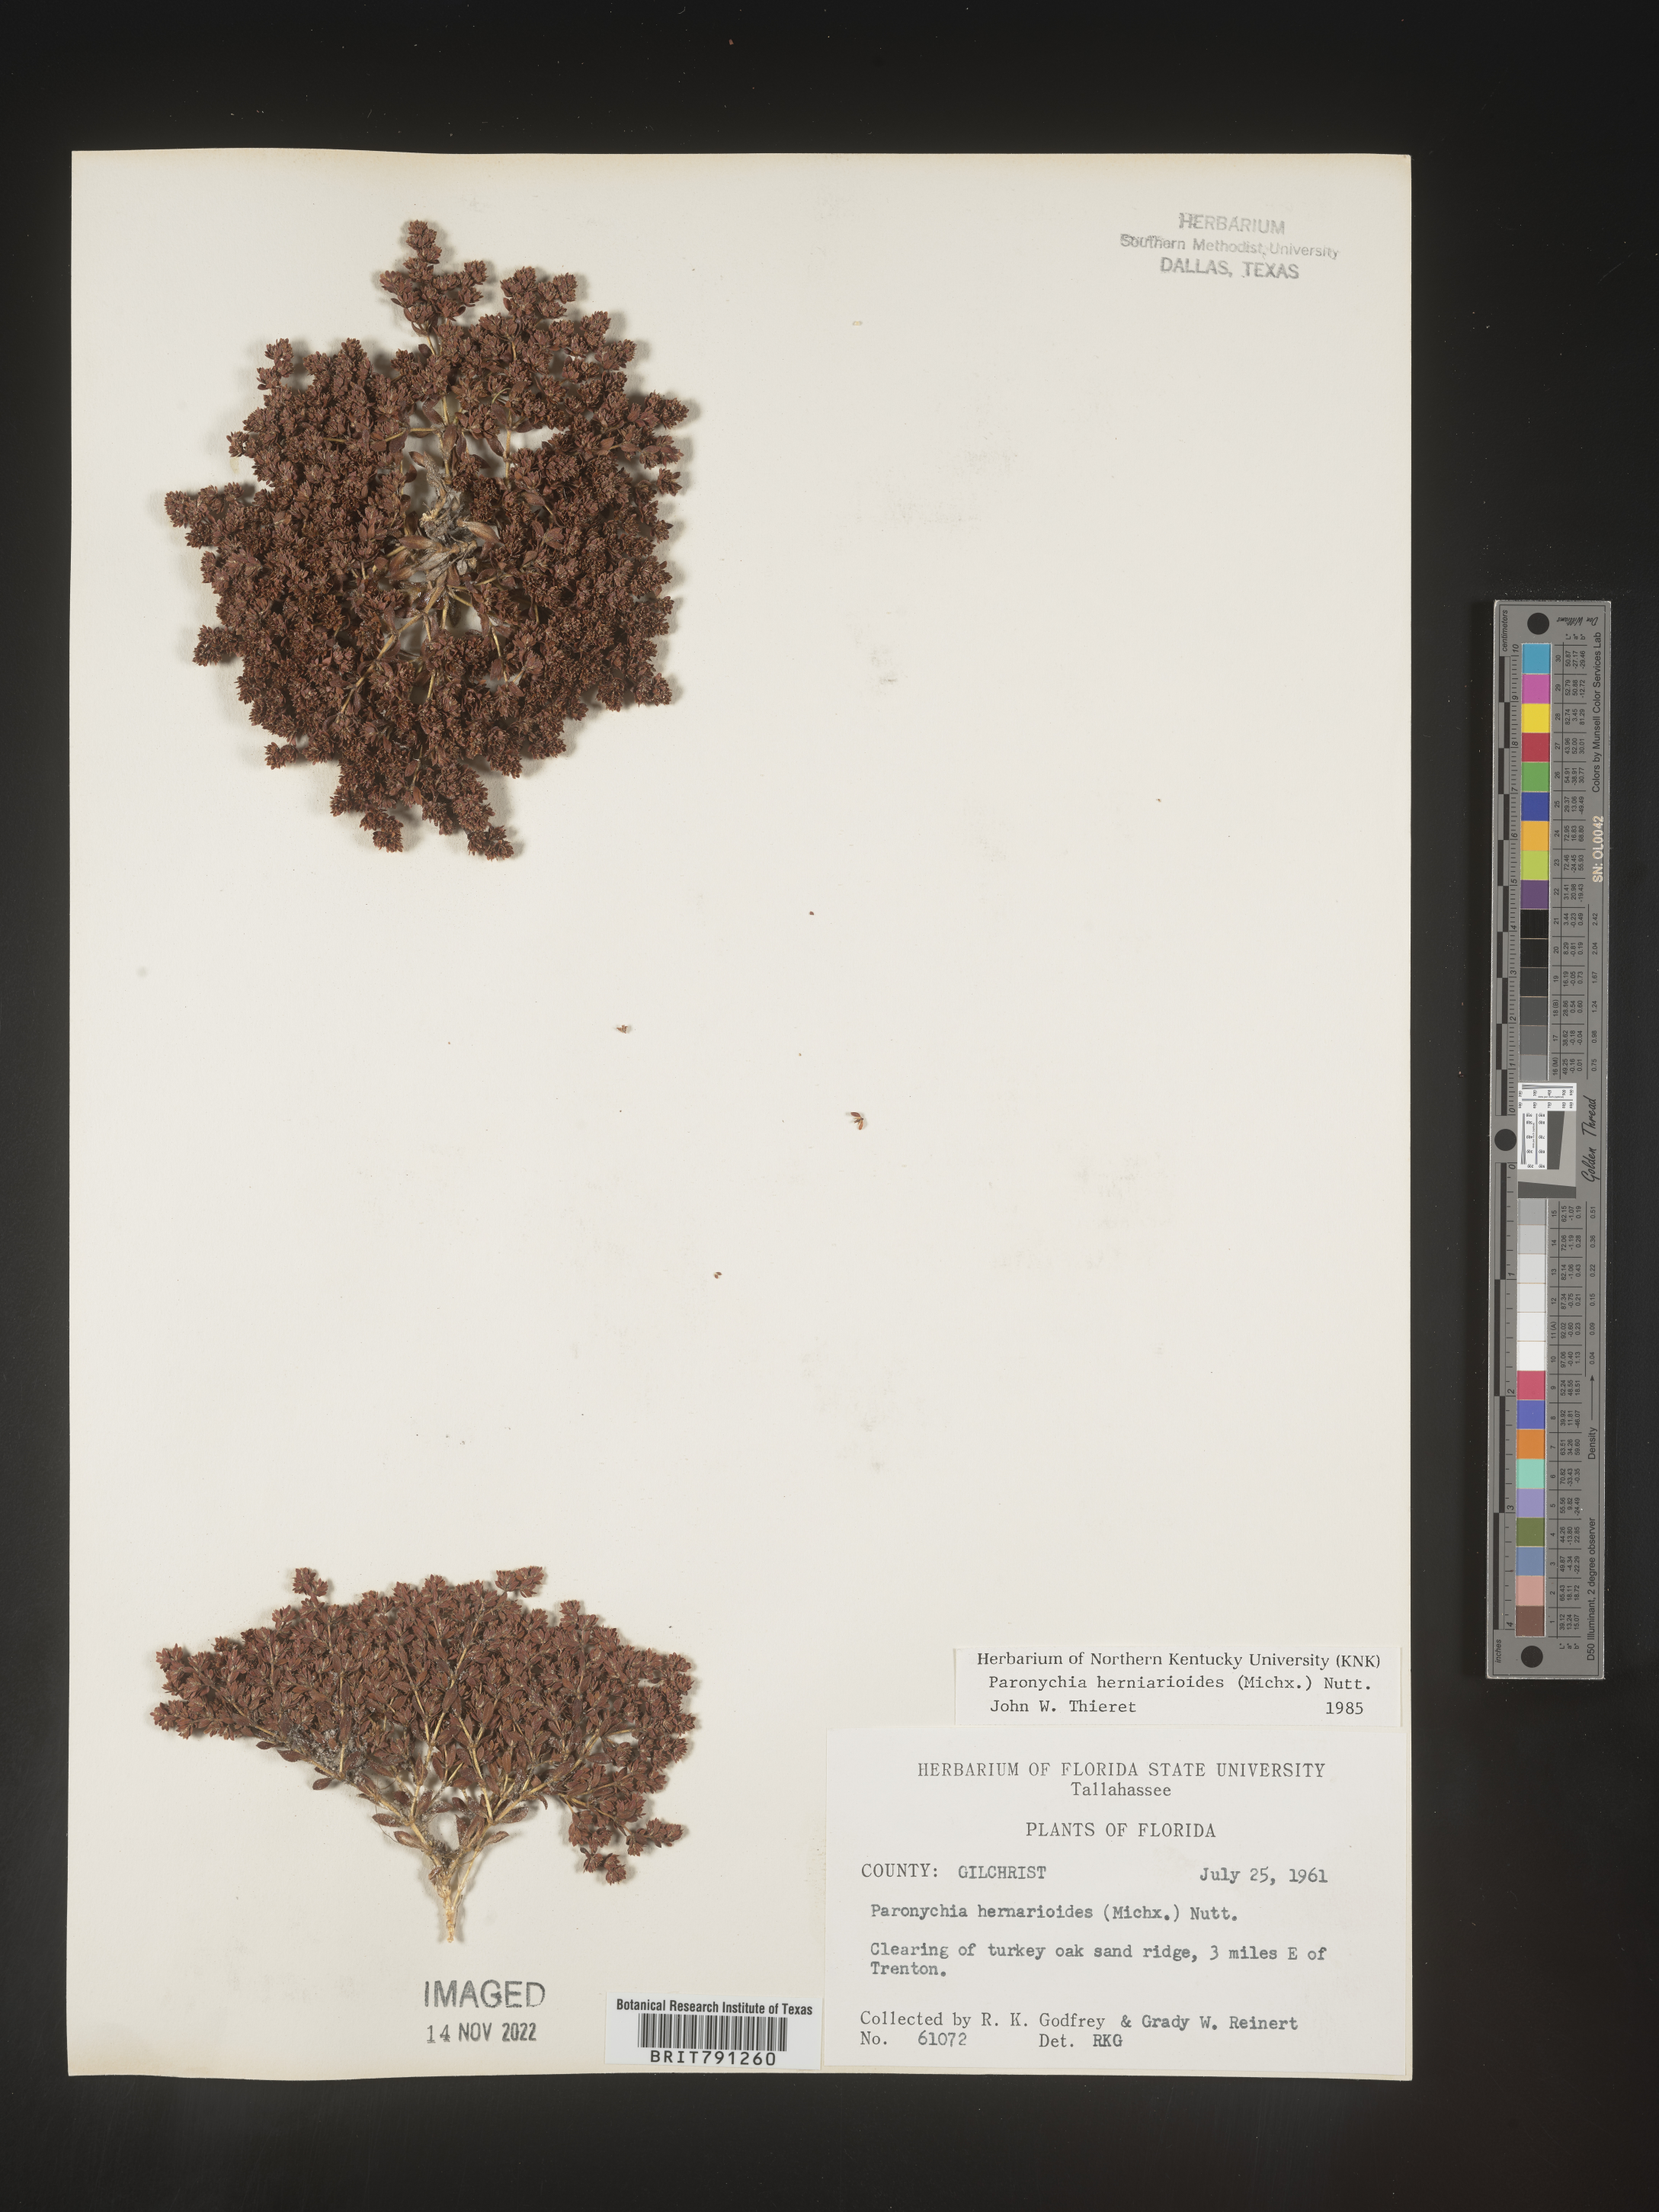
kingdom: Plantae
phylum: Tracheophyta
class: Magnoliopsida
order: Caryophyllales
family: Caryophyllaceae
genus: Paronychia
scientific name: Paronychia herniarioides
